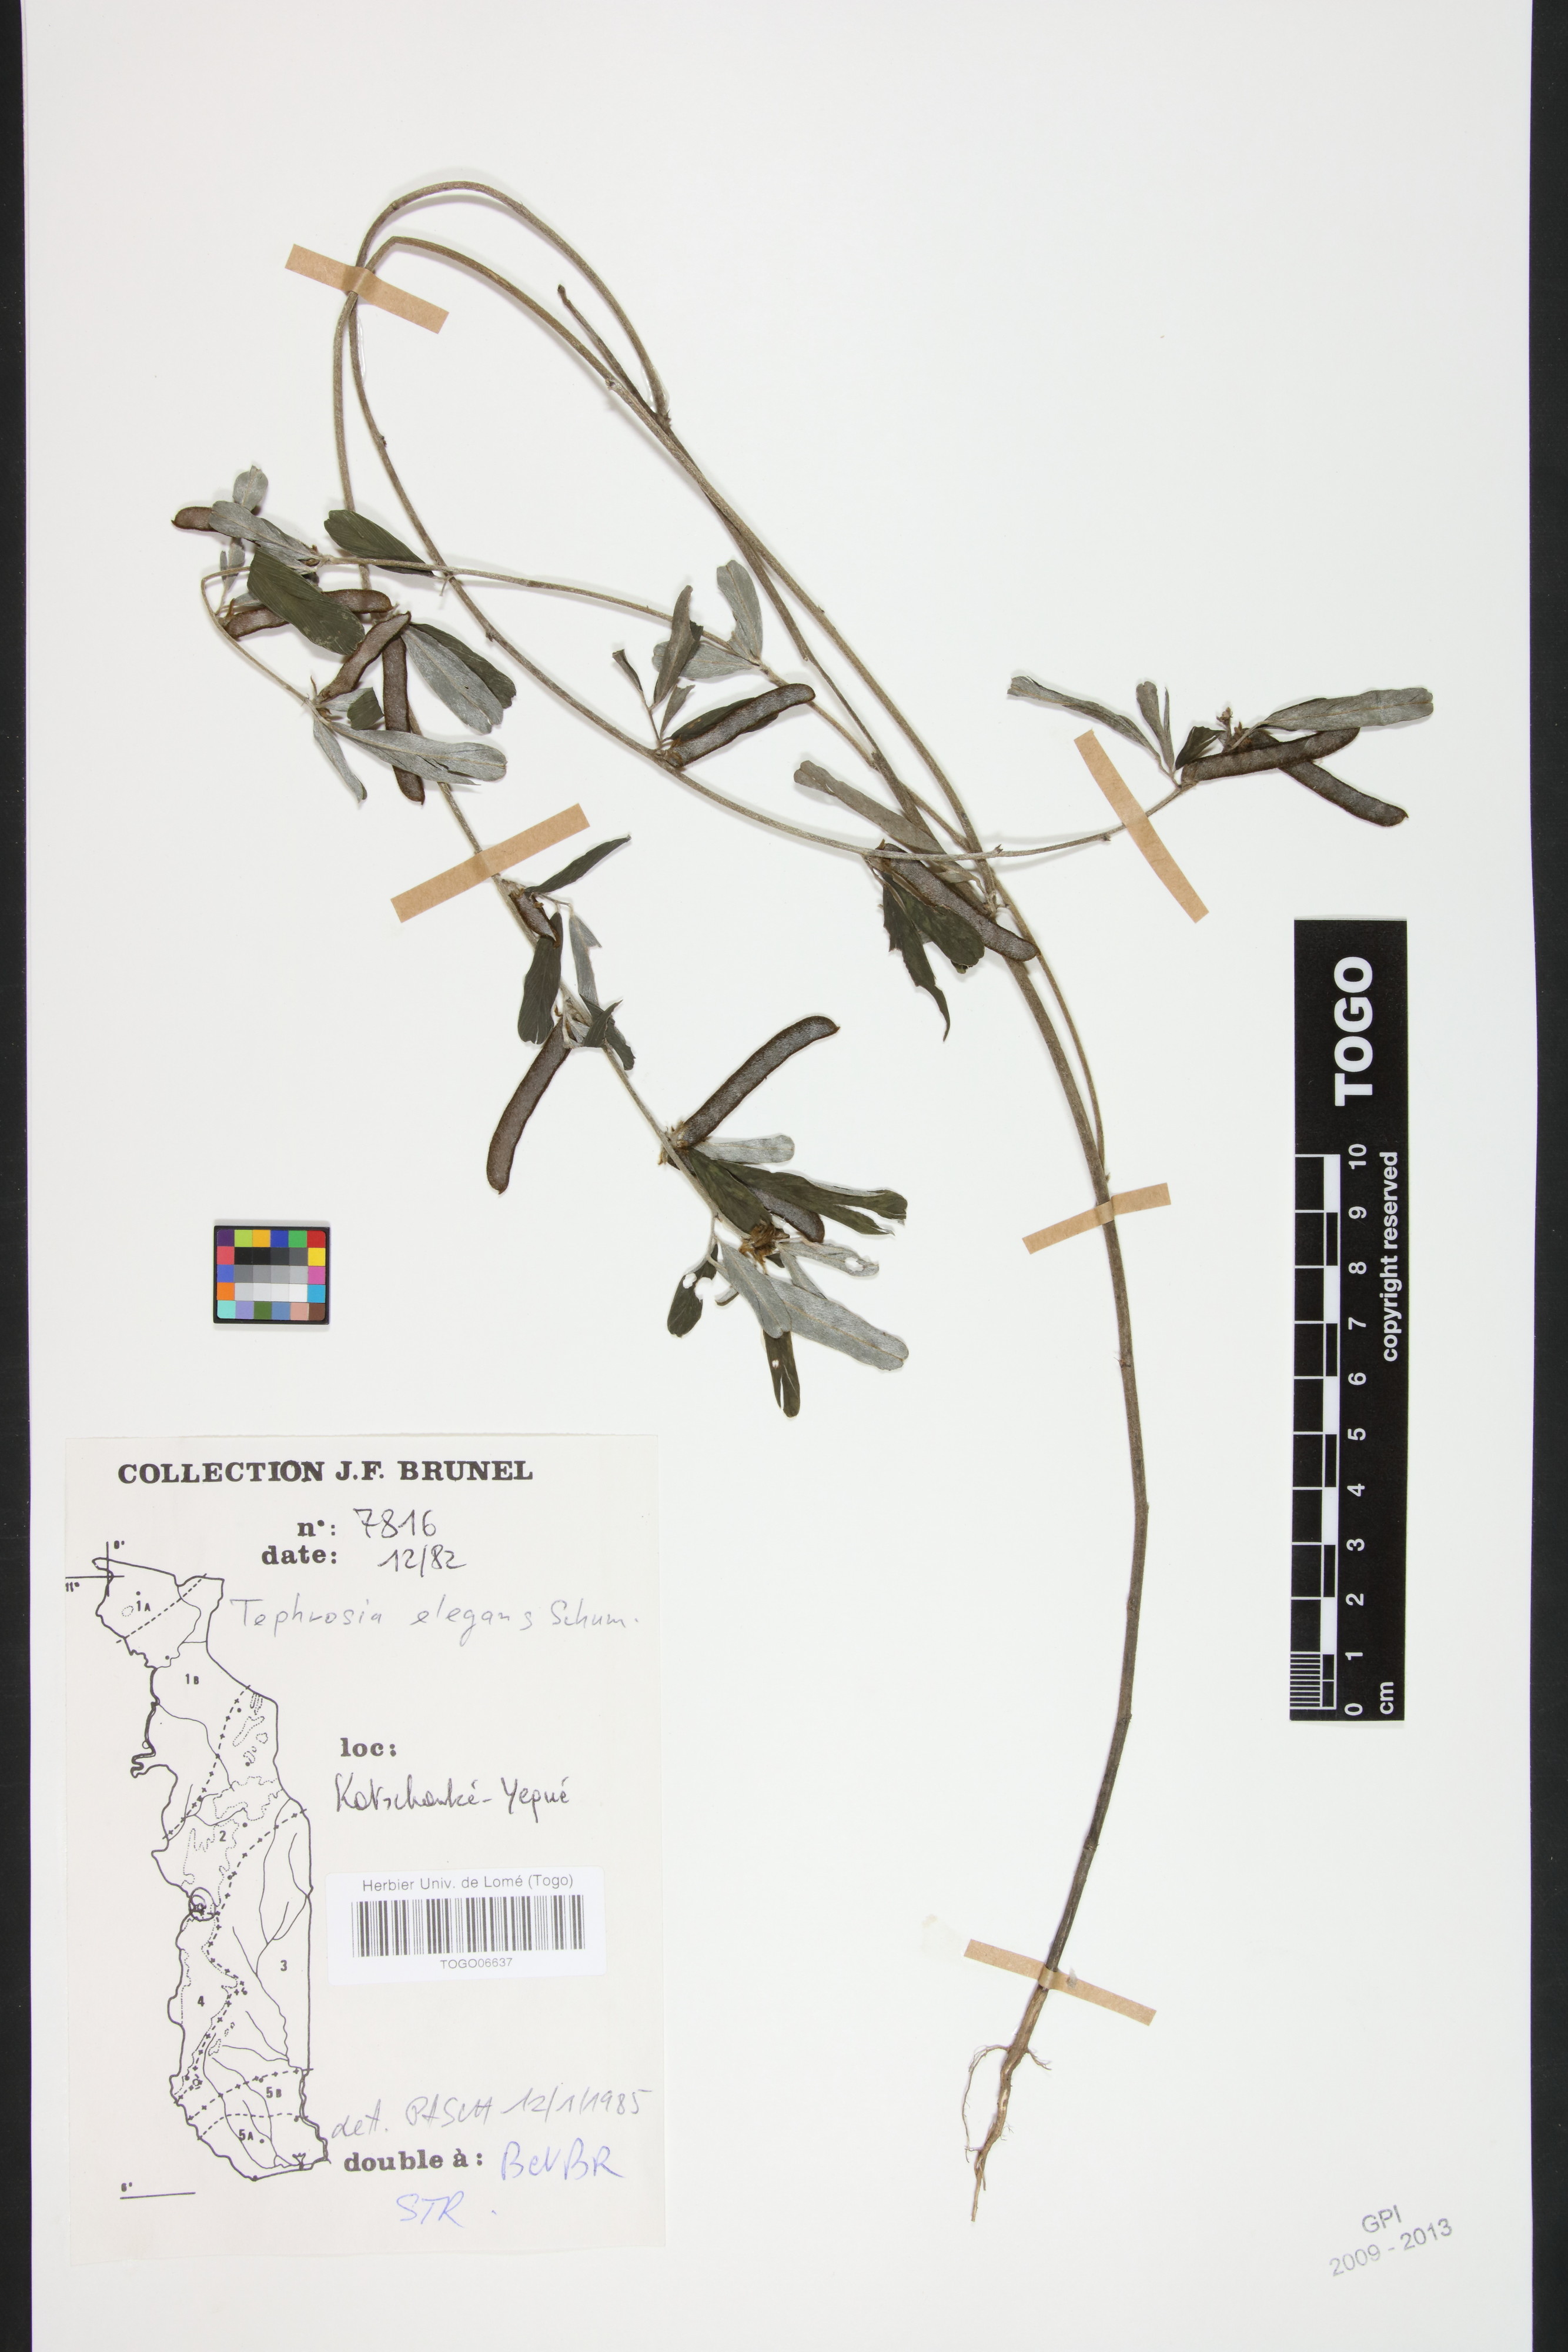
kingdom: Plantae
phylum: Tracheophyta
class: Magnoliopsida
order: Fabales
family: Fabaceae
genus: Tephrosia
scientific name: Tephrosia elegans
